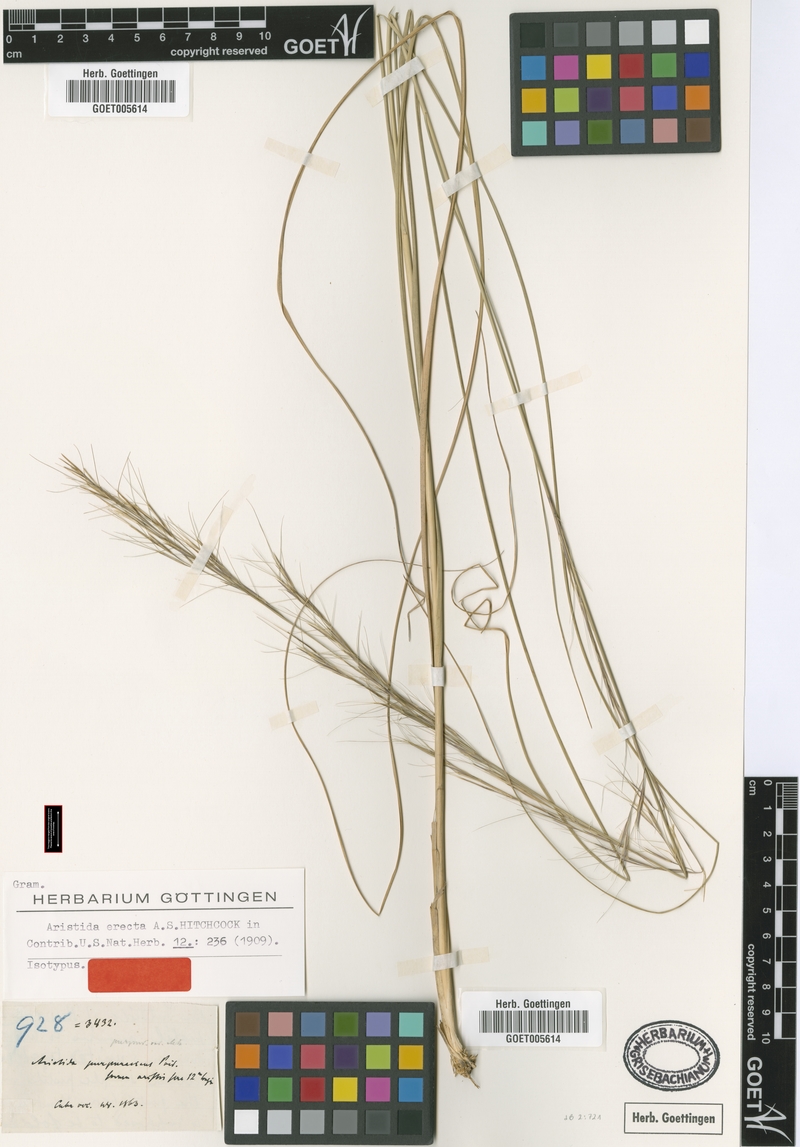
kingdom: Plantae
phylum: Tracheophyta
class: Liliopsida
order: Poales
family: Poaceae
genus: Aristida
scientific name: Aristida erecta
